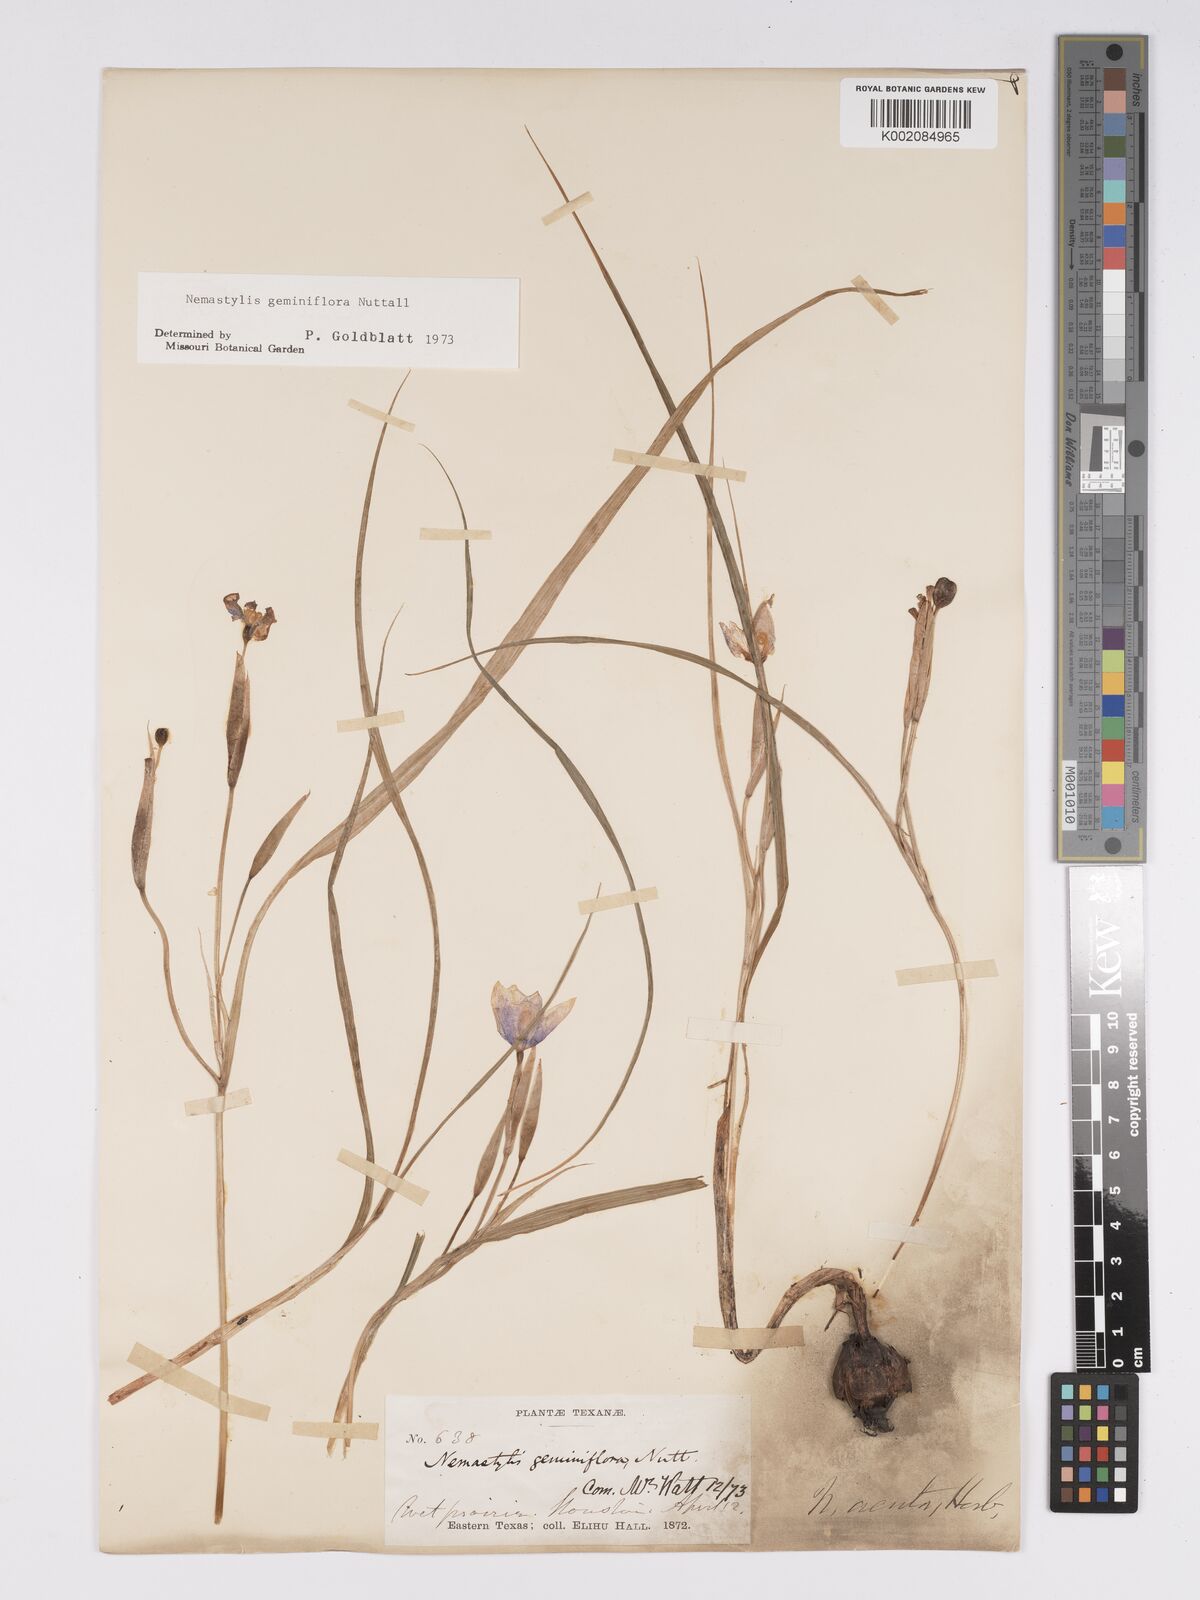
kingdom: Plantae
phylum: Tracheophyta
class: Liliopsida
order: Asparagales
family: Iridaceae
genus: Nemastylis
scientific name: Nemastylis geminiflora
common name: Prairie celestial
